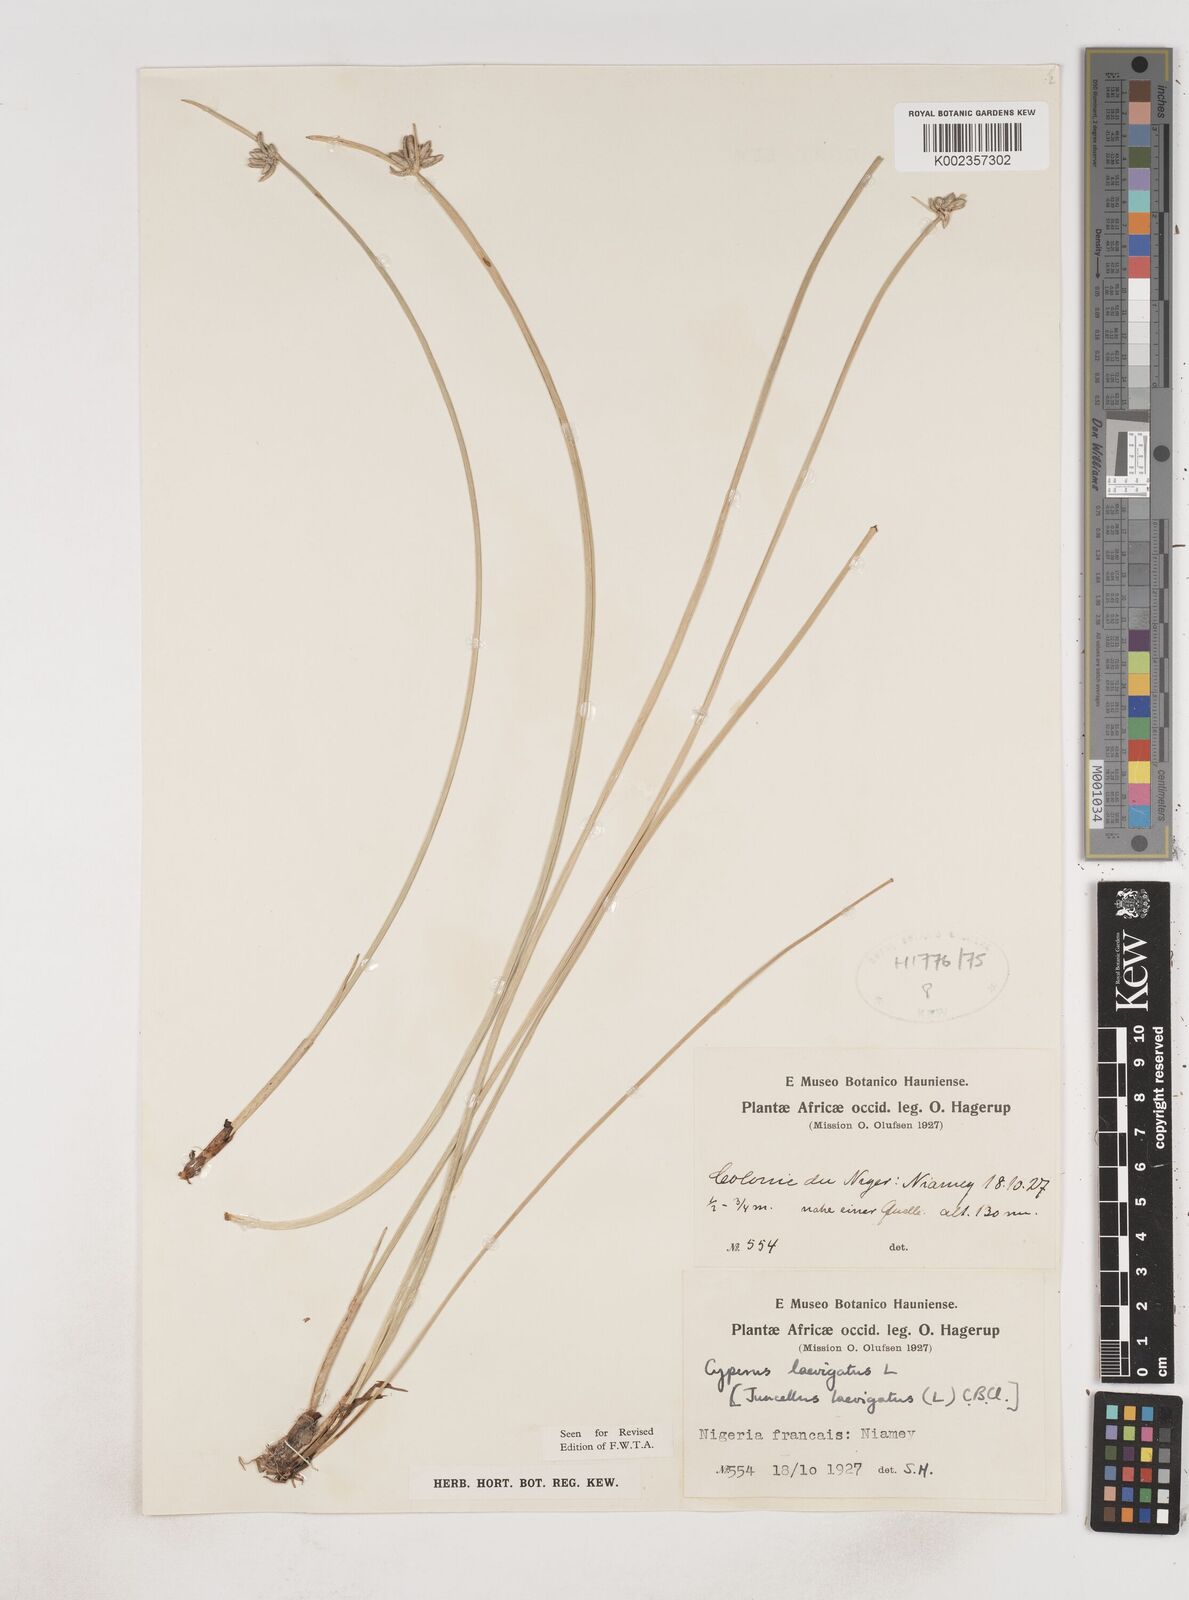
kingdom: Plantae
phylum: Tracheophyta
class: Liliopsida
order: Poales
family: Cyperaceae
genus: Cyperus
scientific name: Cyperus laevigatus
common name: Smooth flat sedge
